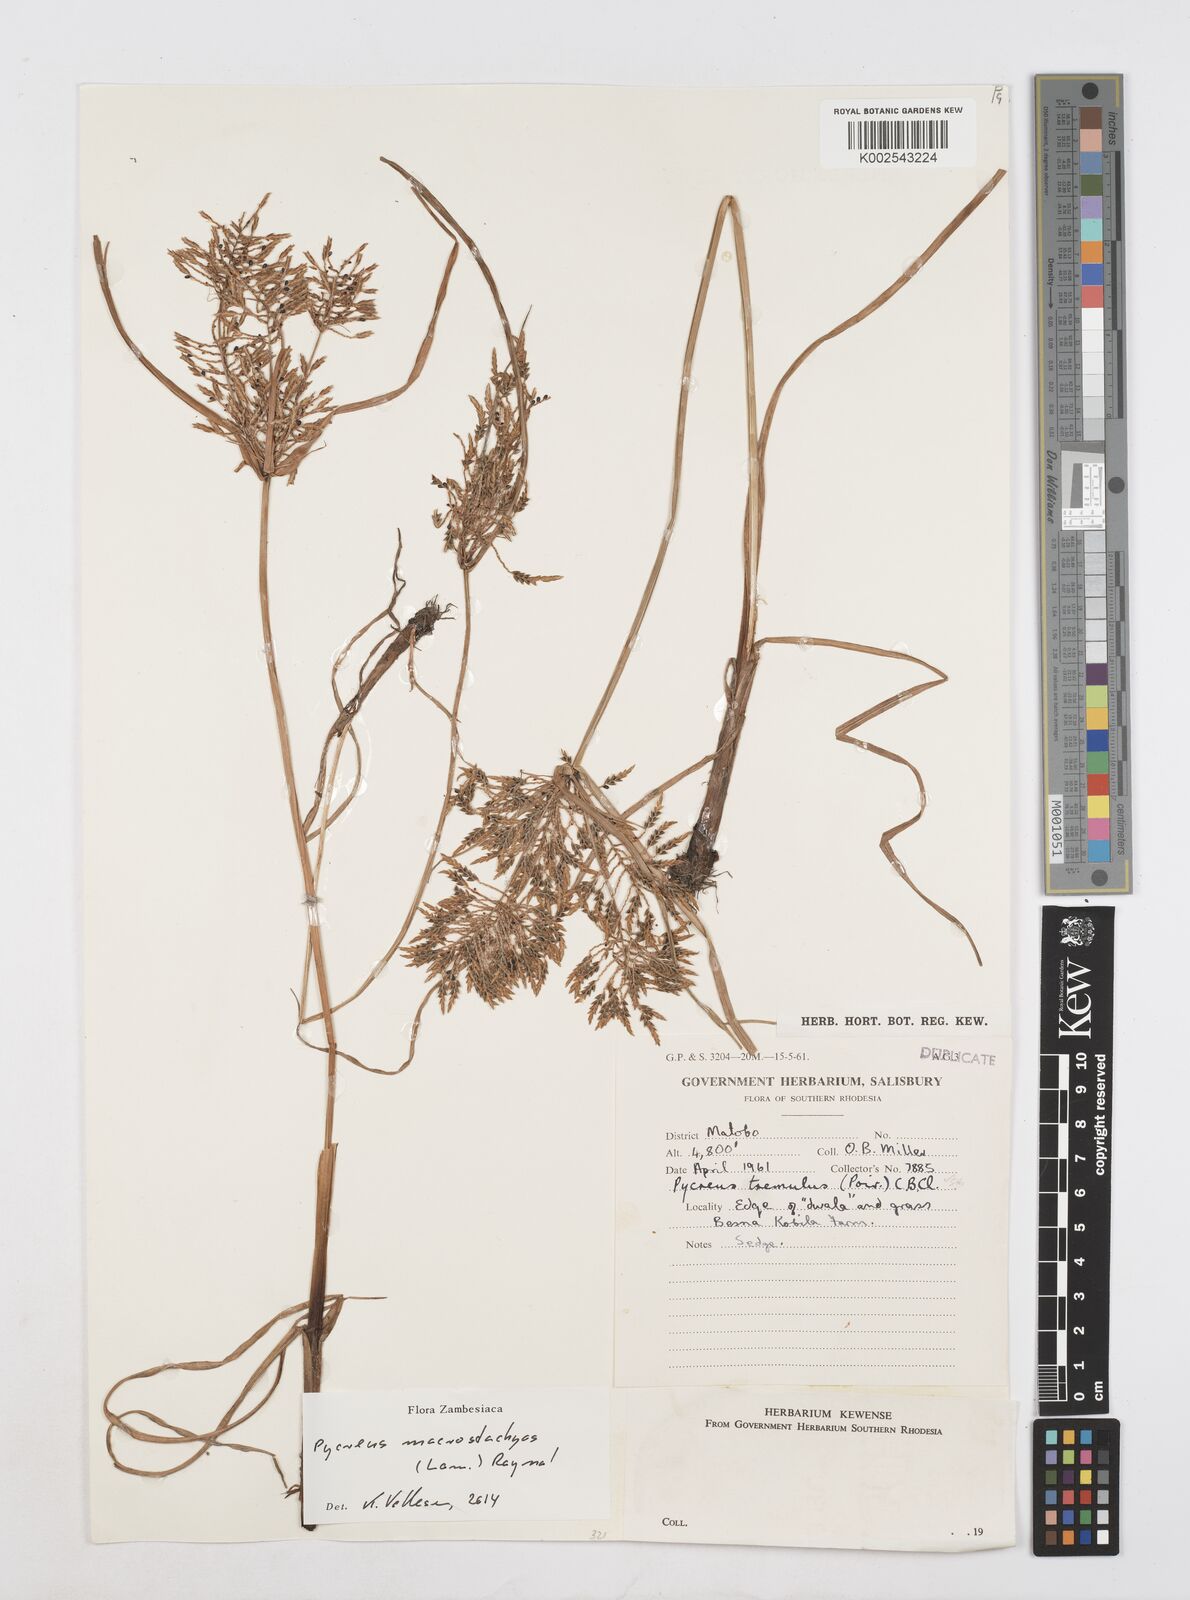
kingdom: Plantae
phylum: Tracheophyta
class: Liliopsida
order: Poales
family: Cyperaceae
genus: Cyperus
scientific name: Cyperus macrostachyos
